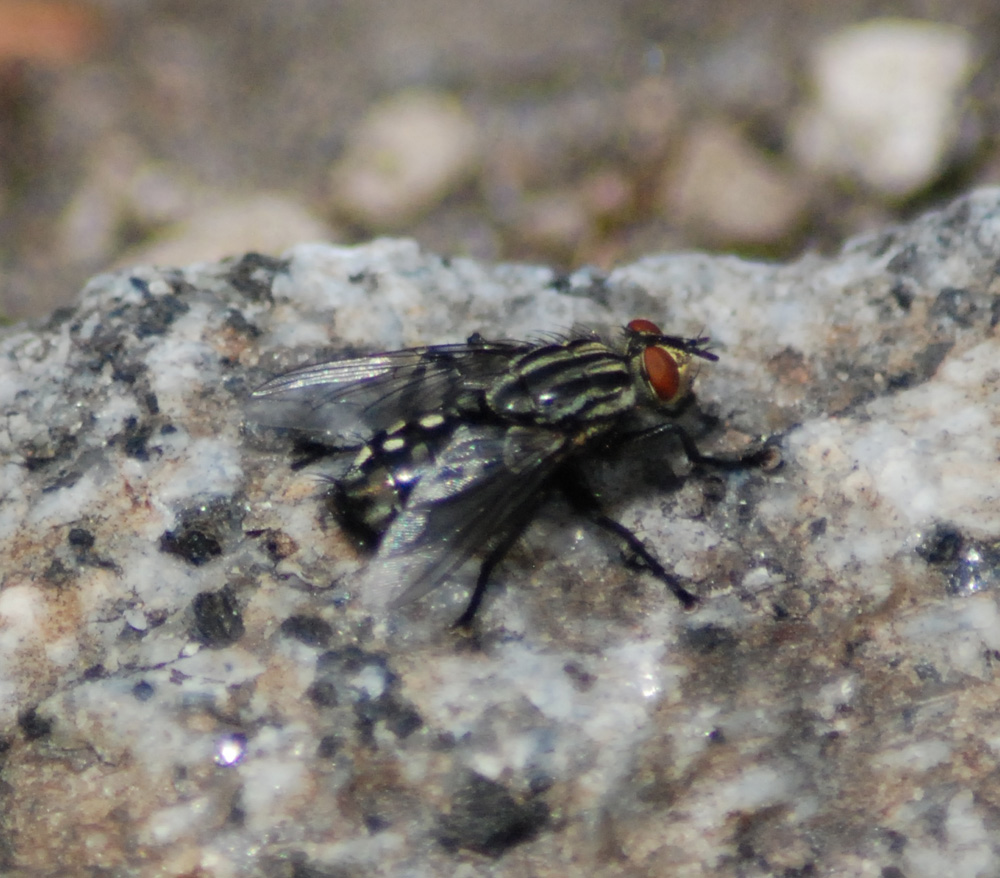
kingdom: Animalia
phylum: Arthropoda
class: Insecta
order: Diptera
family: Sarcophagidae
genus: Sarcophaga
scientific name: Sarcophaga
